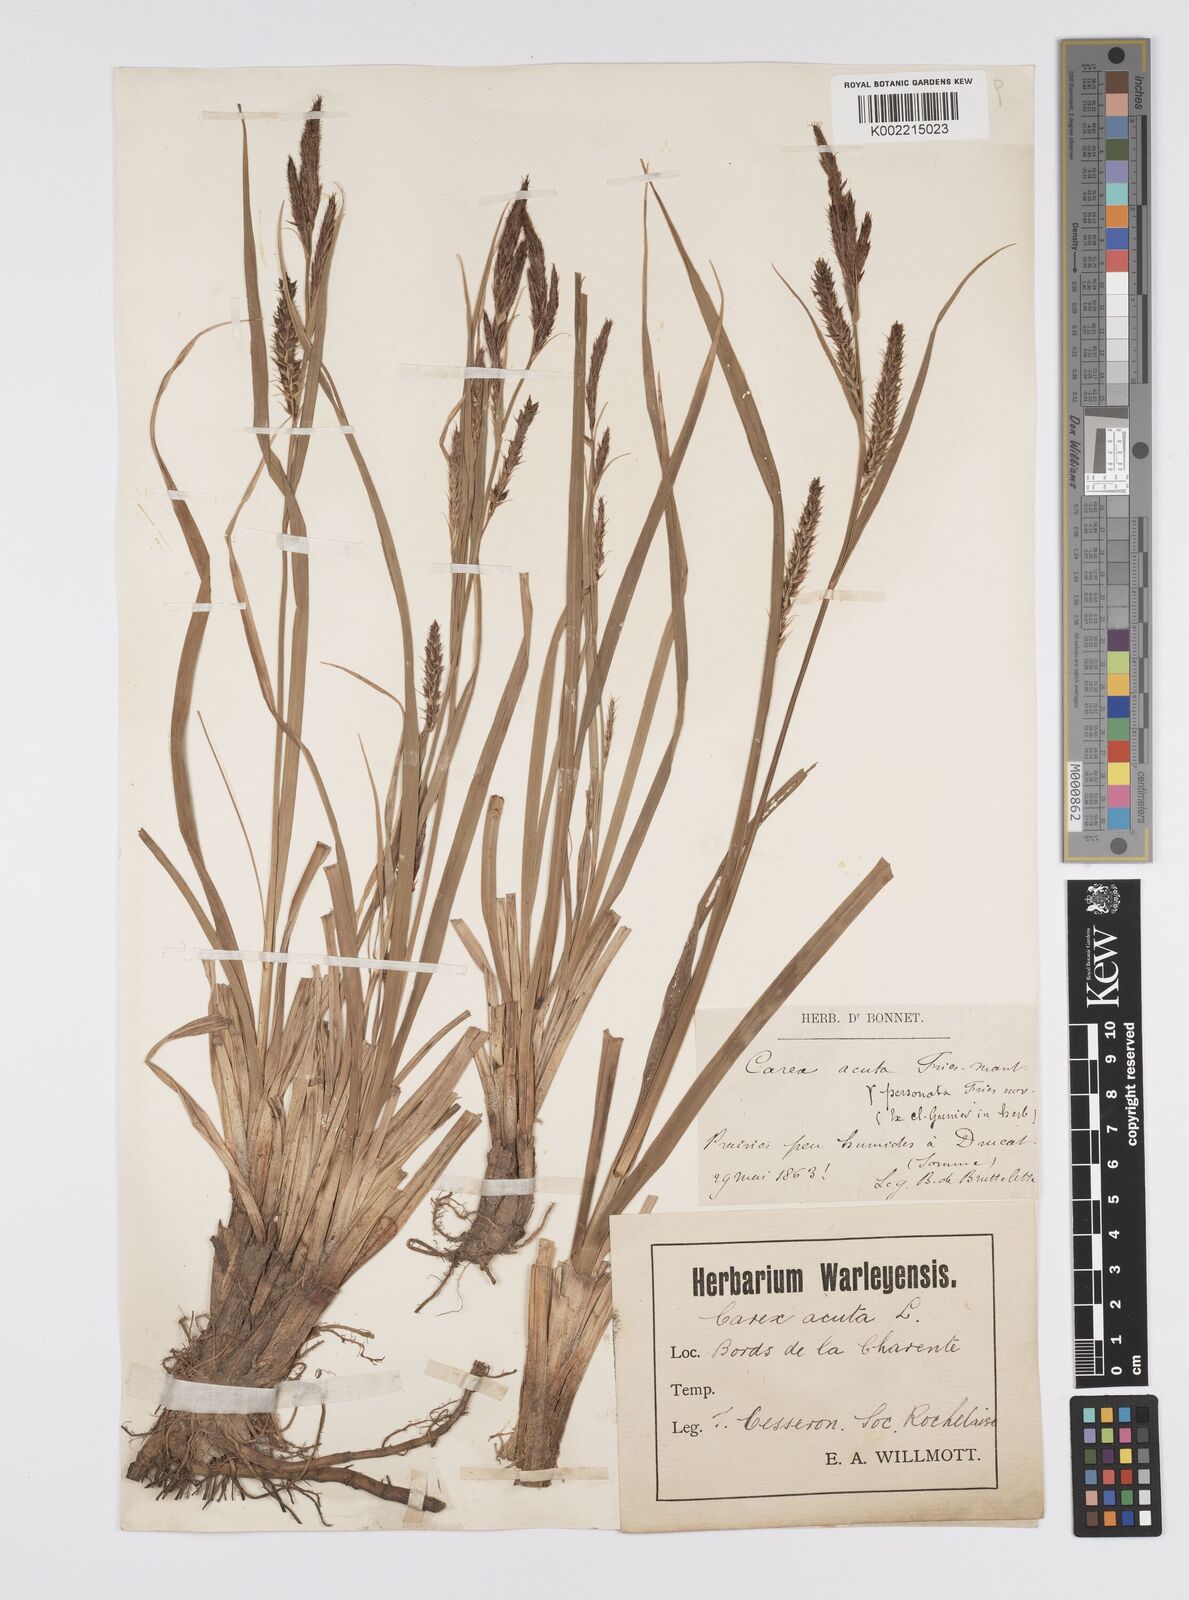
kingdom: Plantae
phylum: Tracheophyta
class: Liliopsida
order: Poales
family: Cyperaceae
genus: Carex
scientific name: Carex riparia
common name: Greater pond-sedge
